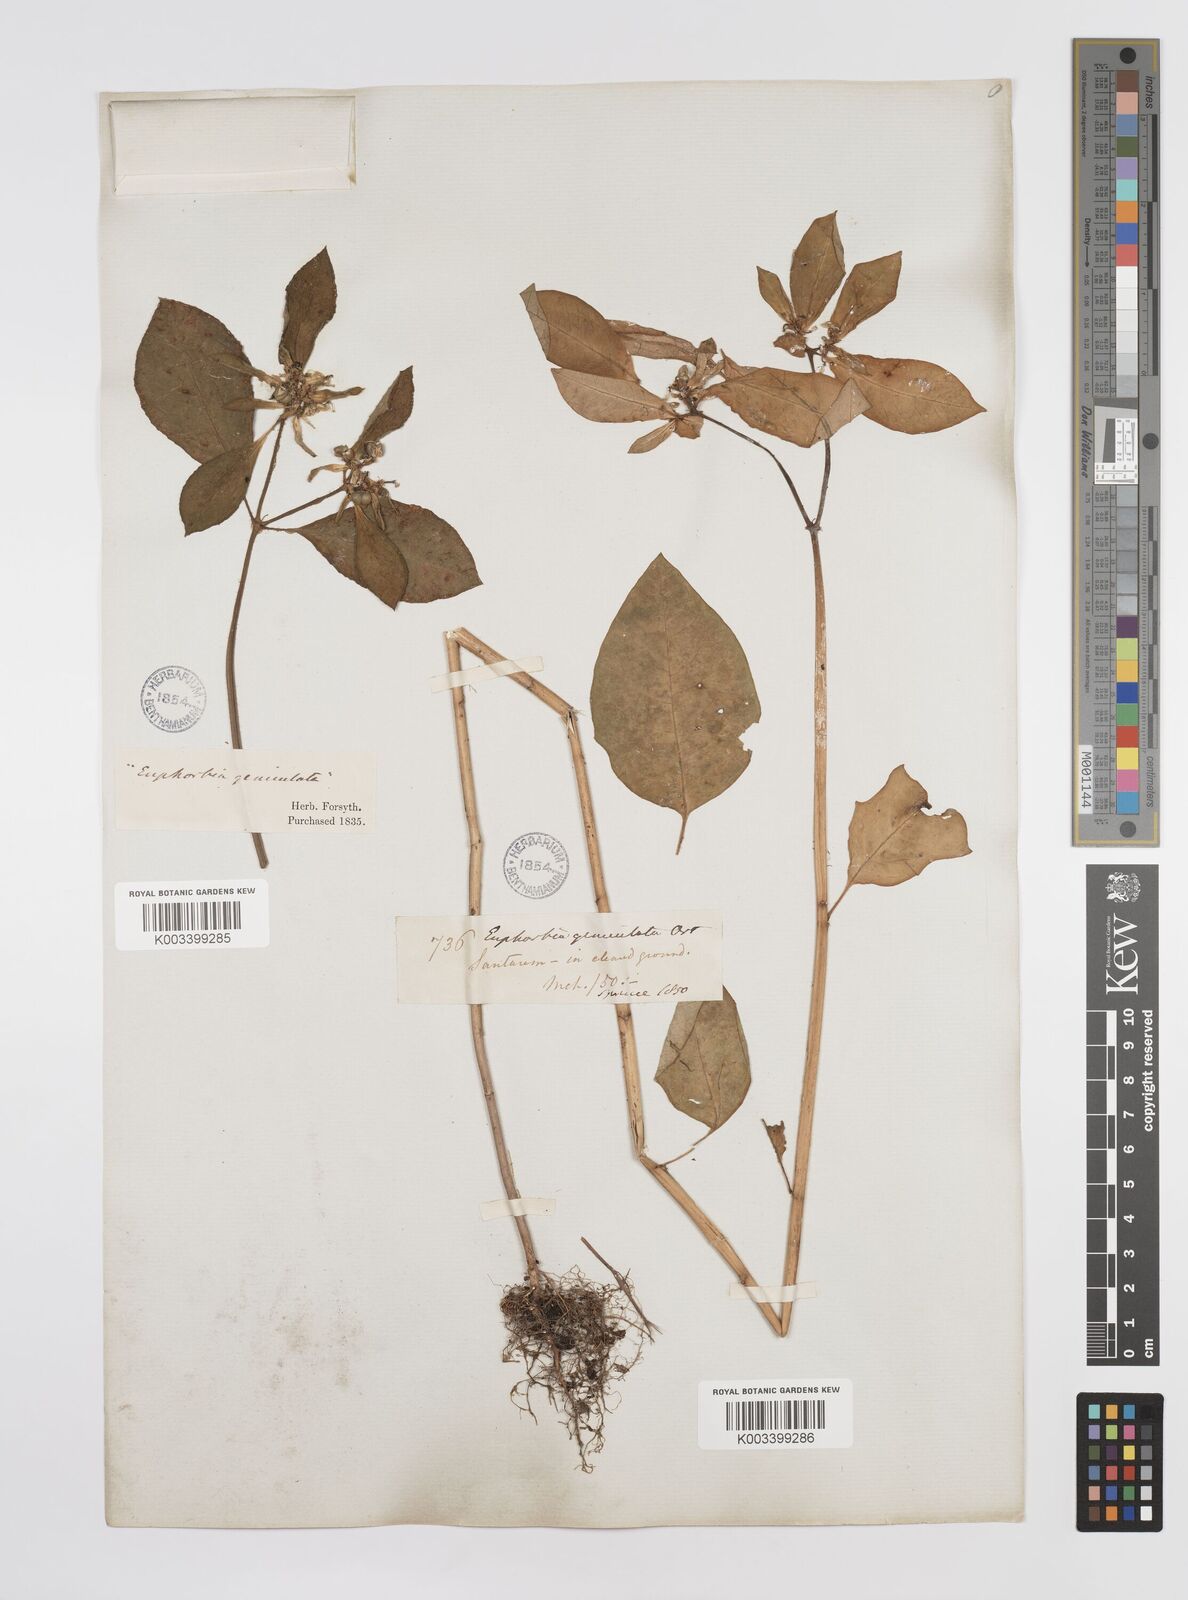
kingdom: Plantae
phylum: Tracheophyta
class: Magnoliopsida
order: Malpighiales
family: Euphorbiaceae
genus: Euphorbia
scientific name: Euphorbia heterophylla
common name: Mexican fireplant
